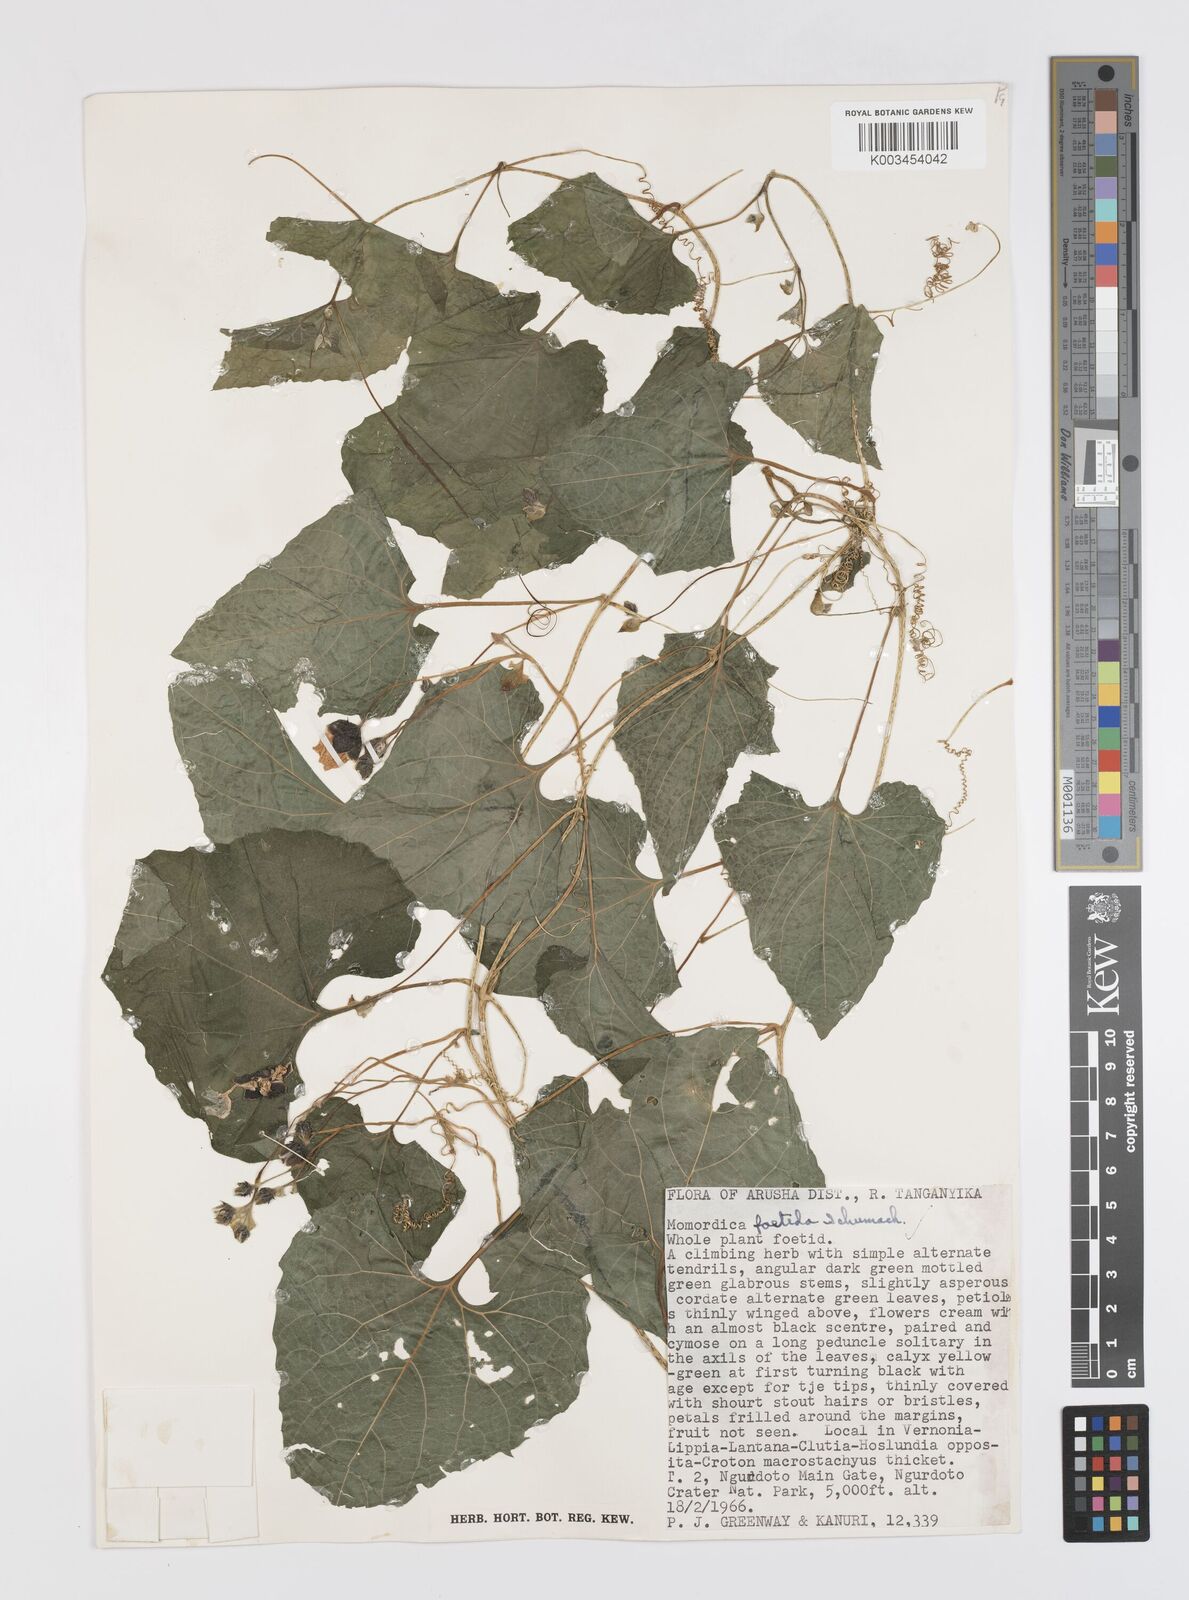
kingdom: Plantae
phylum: Tracheophyta
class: Magnoliopsida
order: Cucurbitales
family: Cucurbitaceae
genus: Momordica
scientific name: Momordica foetida
